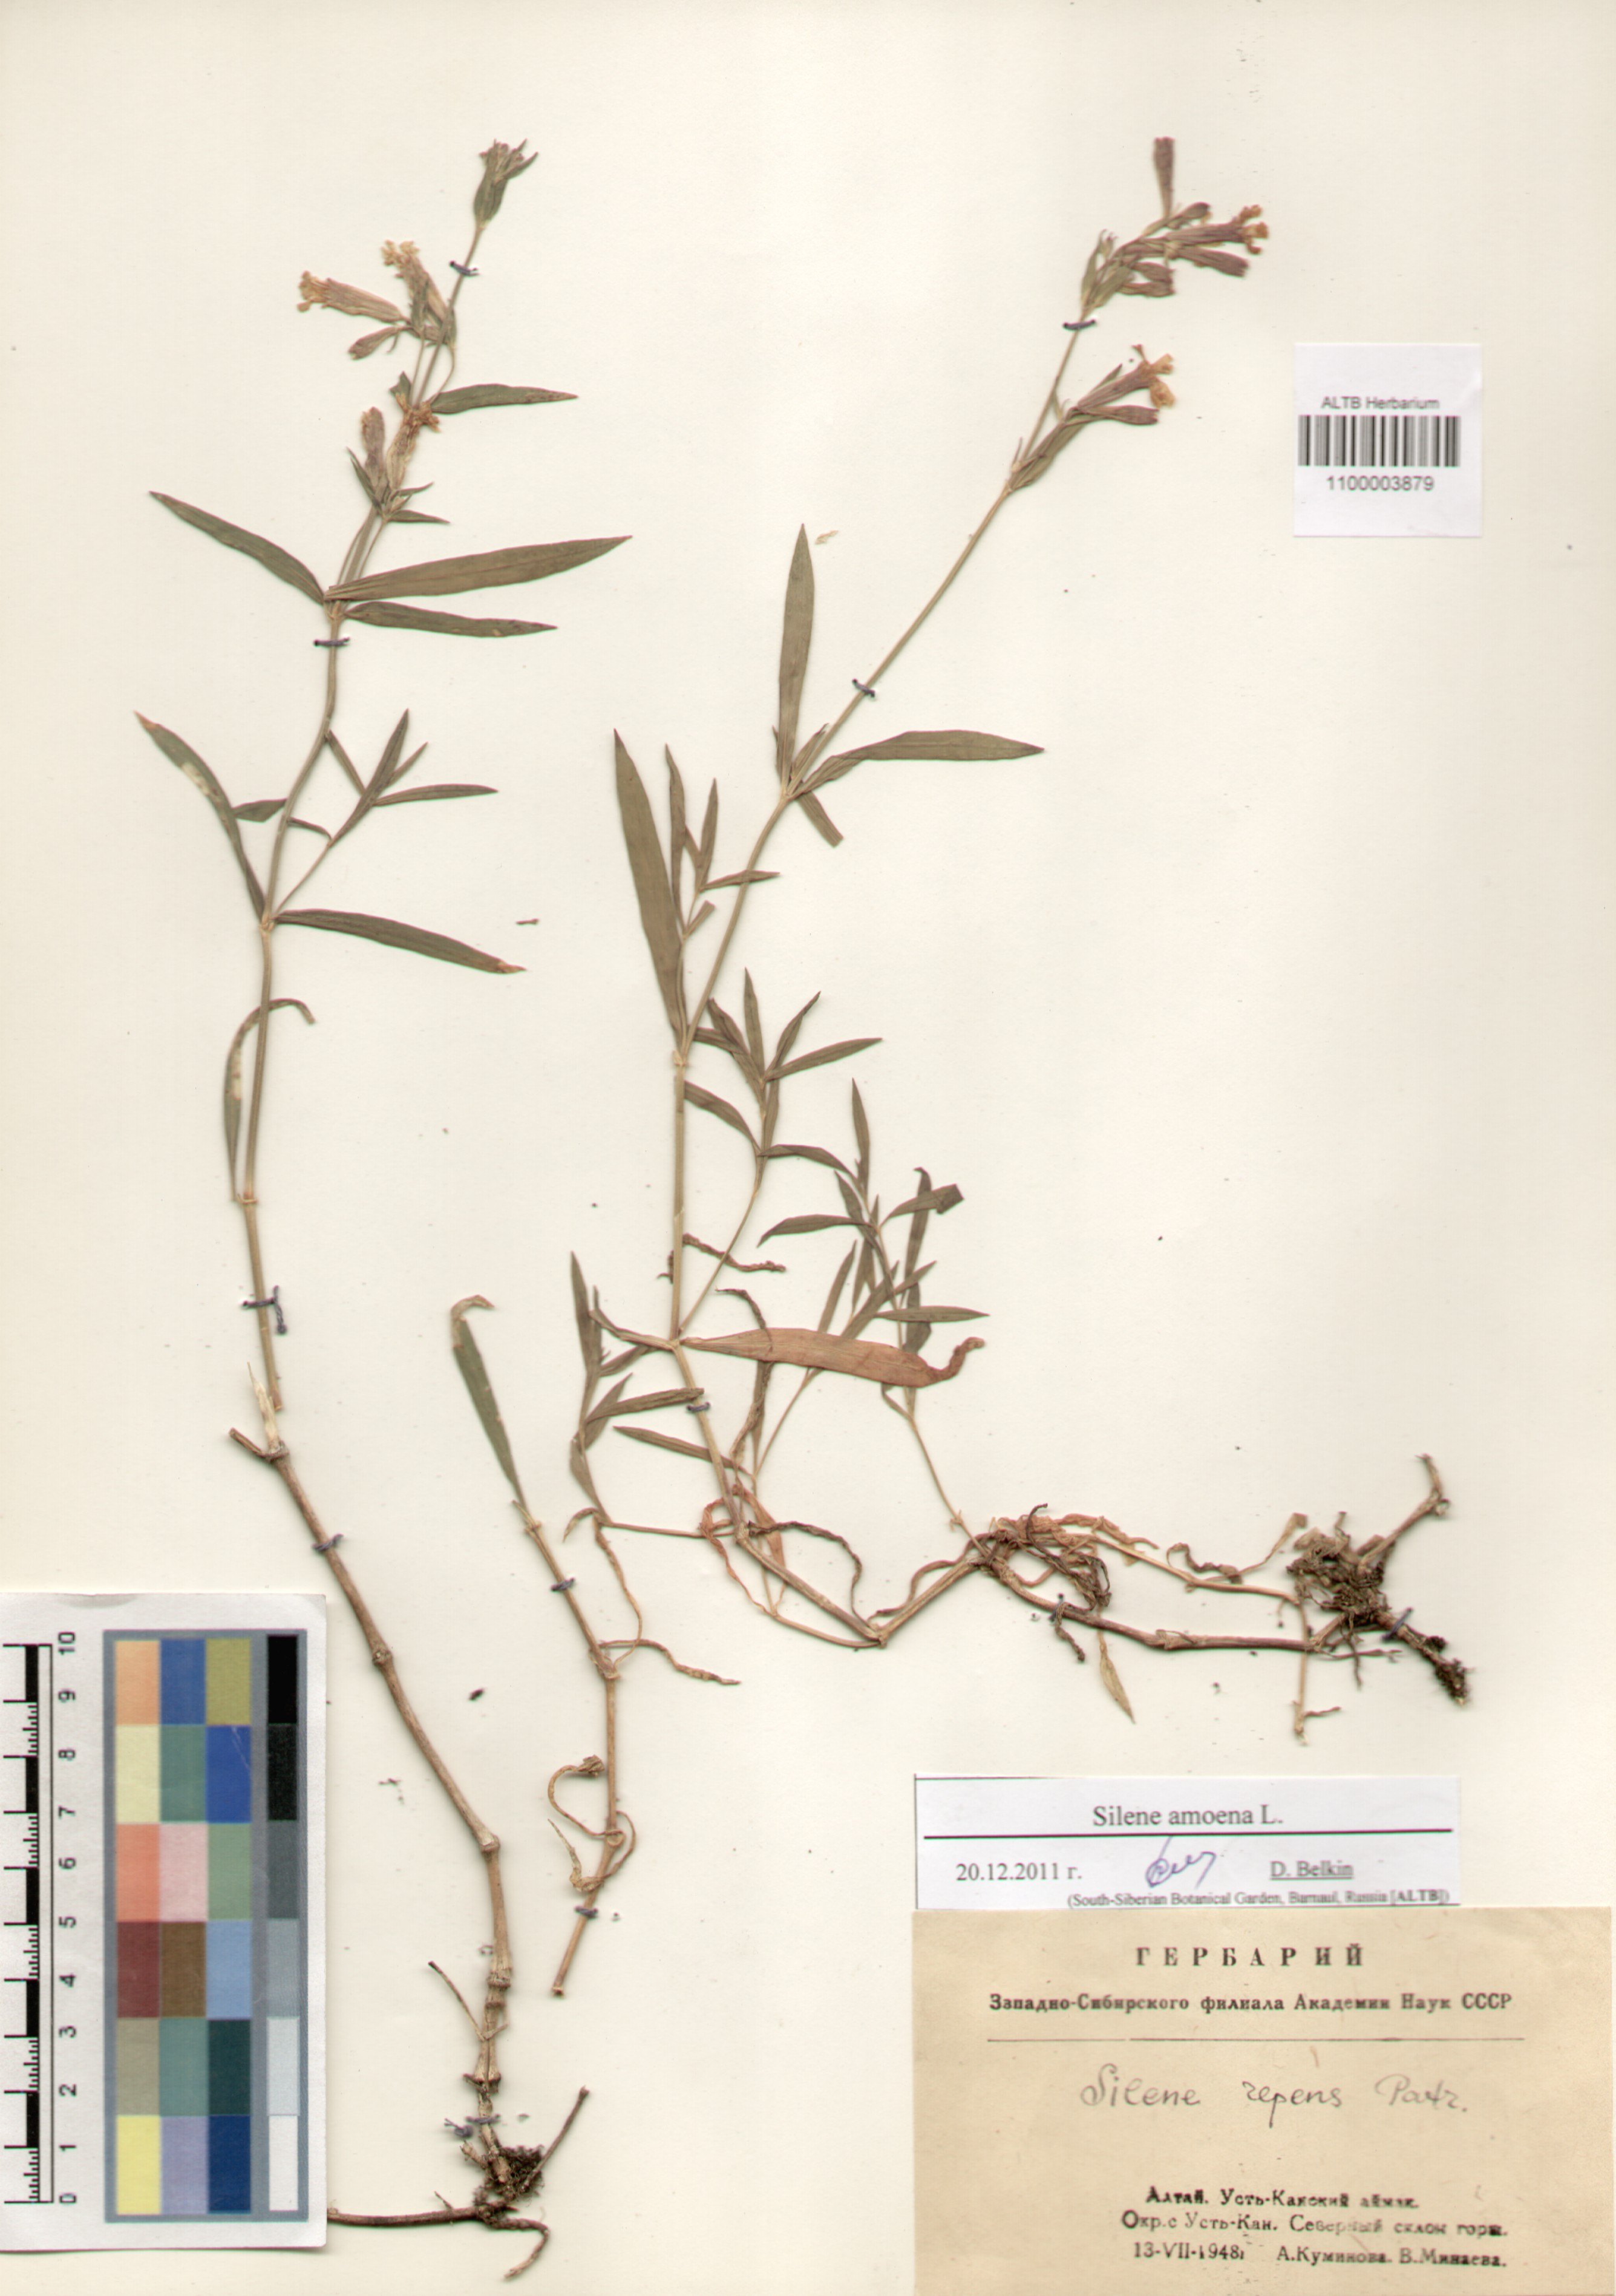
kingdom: Plantae
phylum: Tracheophyta
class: Magnoliopsida
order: Caryophyllales
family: Caryophyllaceae
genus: Silene
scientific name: Silene amoena
